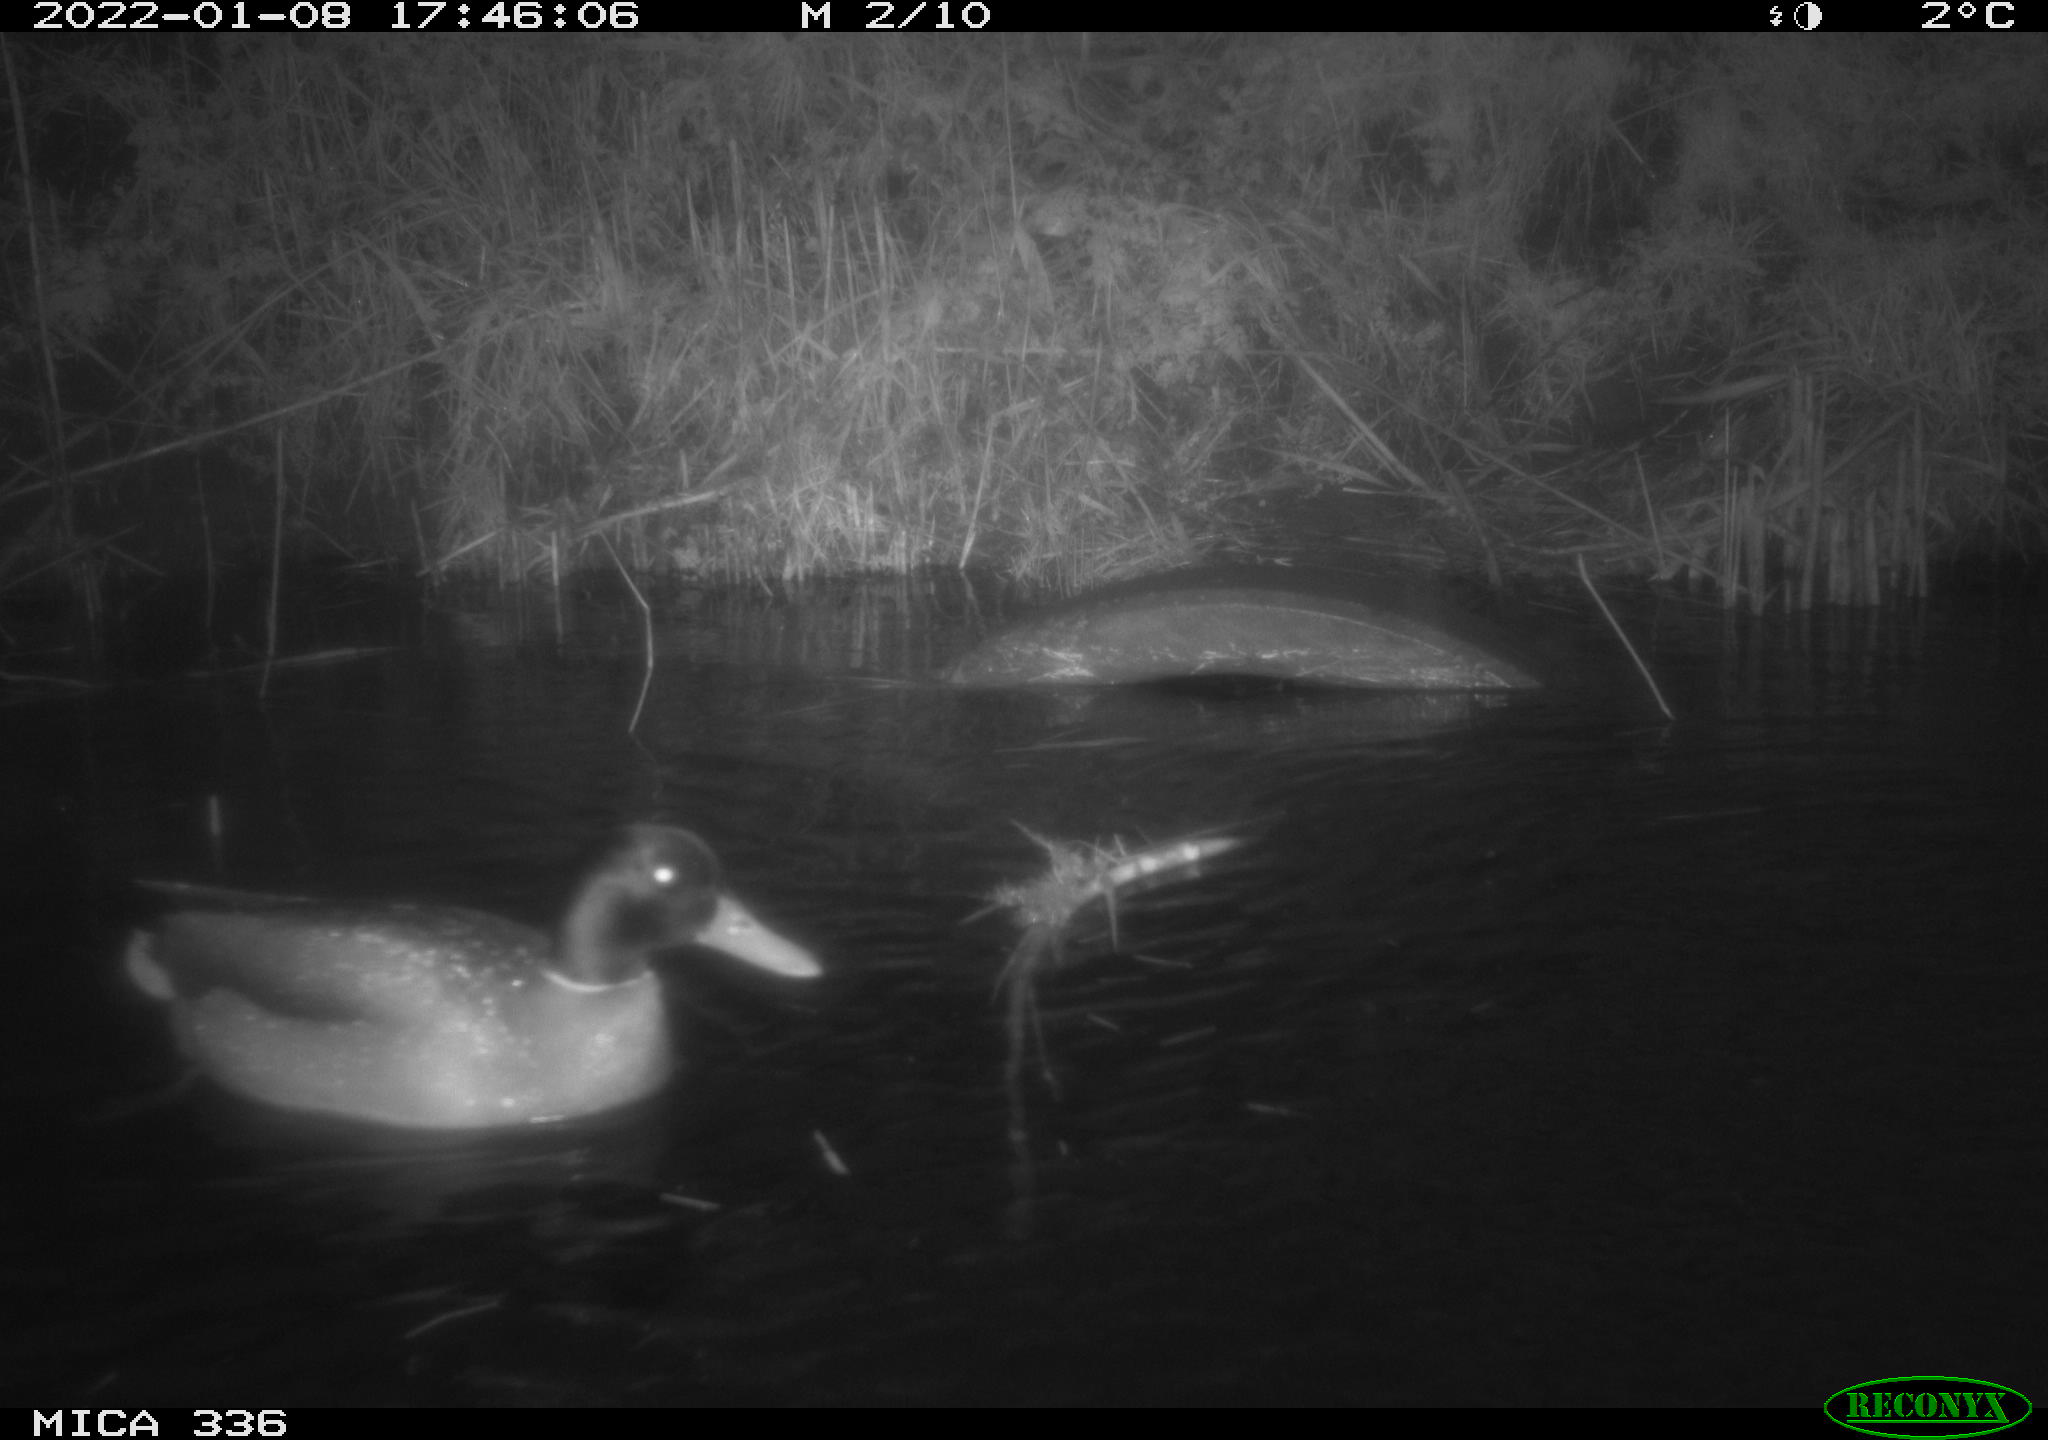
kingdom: Animalia
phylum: Chordata
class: Aves
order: Anseriformes
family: Anatidae
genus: Anas
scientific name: Anas platyrhynchos
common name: Mallard
